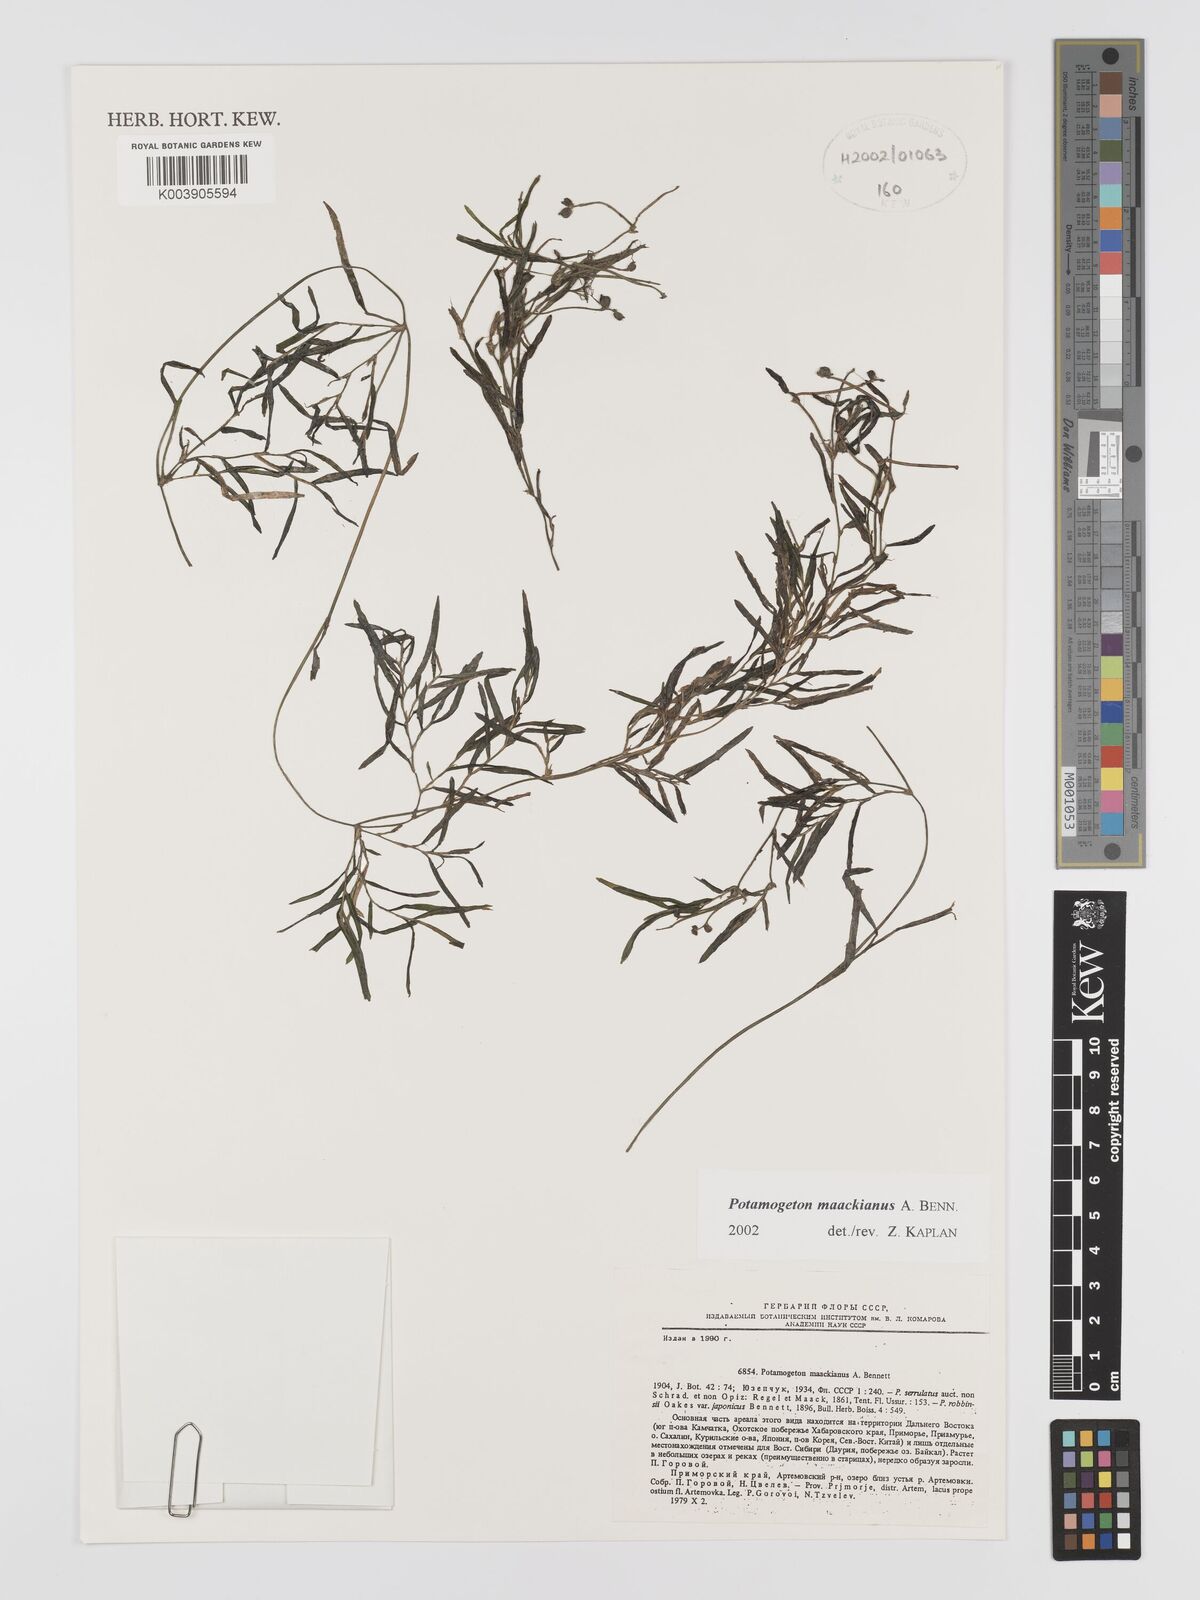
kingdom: Plantae
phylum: Tracheophyta
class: Liliopsida
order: Alismatales
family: Potamogetonaceae
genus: Potamogeton
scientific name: Potamogeton maackianus
